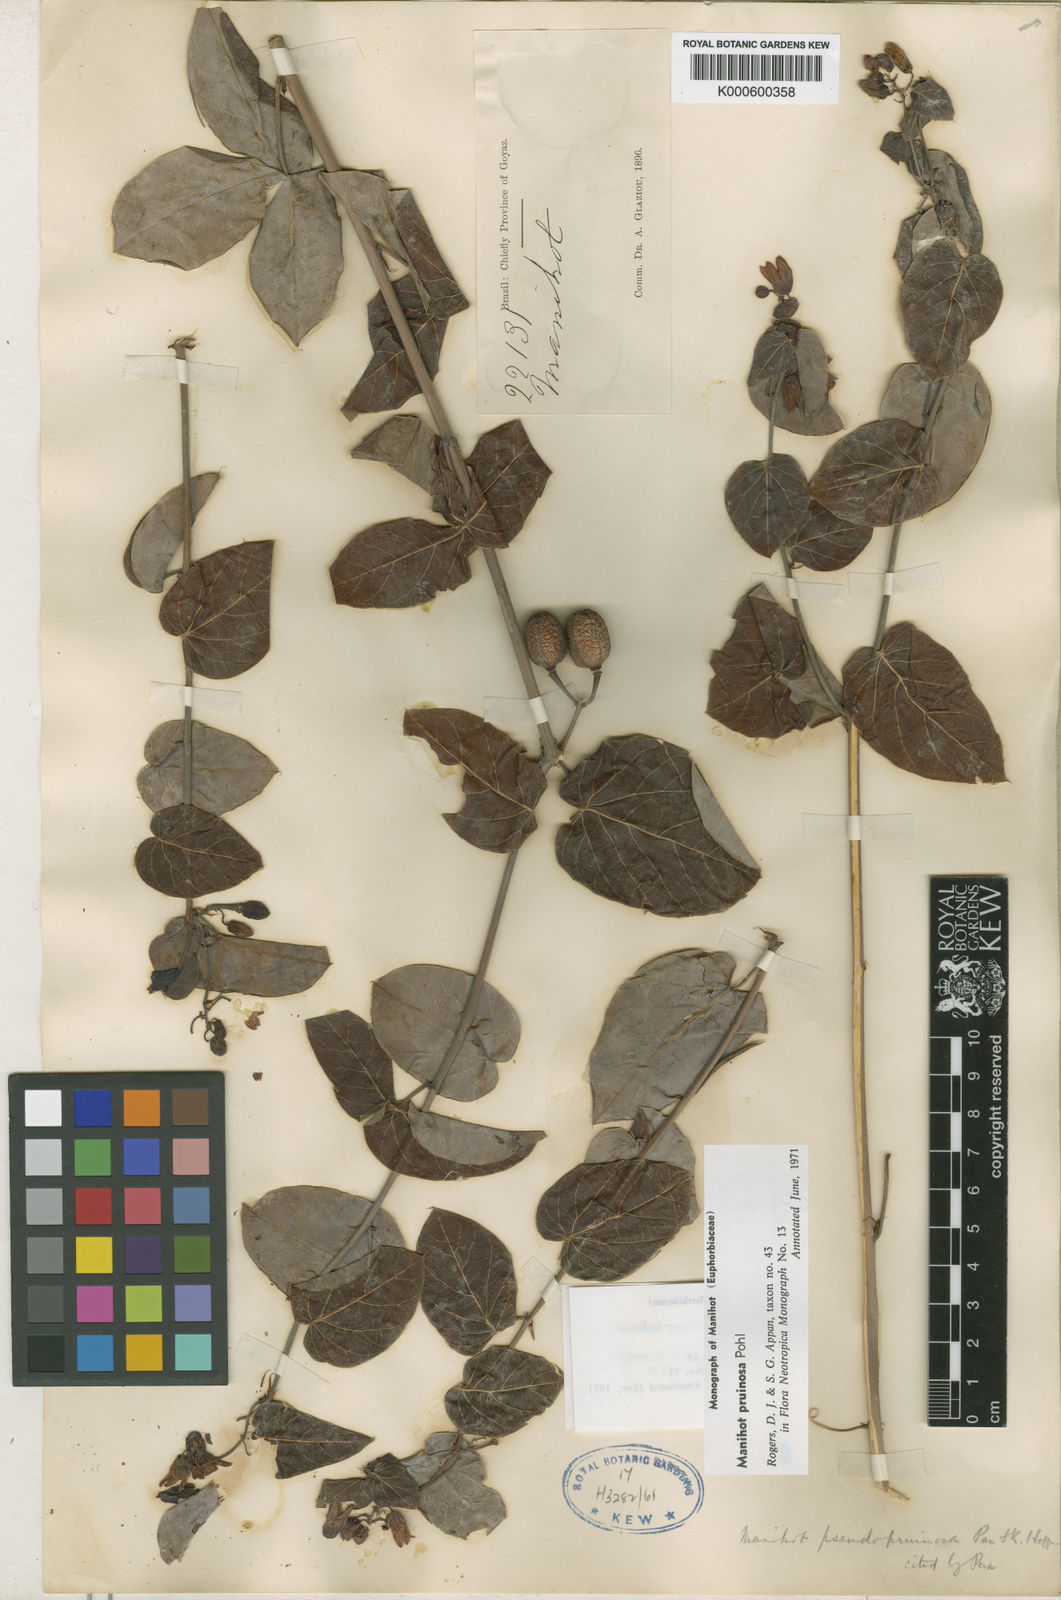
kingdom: Plantae
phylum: Tracheophyta
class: Magnoliopsida
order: Malpighiales
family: Euphorbiaceae
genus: Manihot
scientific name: Manihot pruinosa
